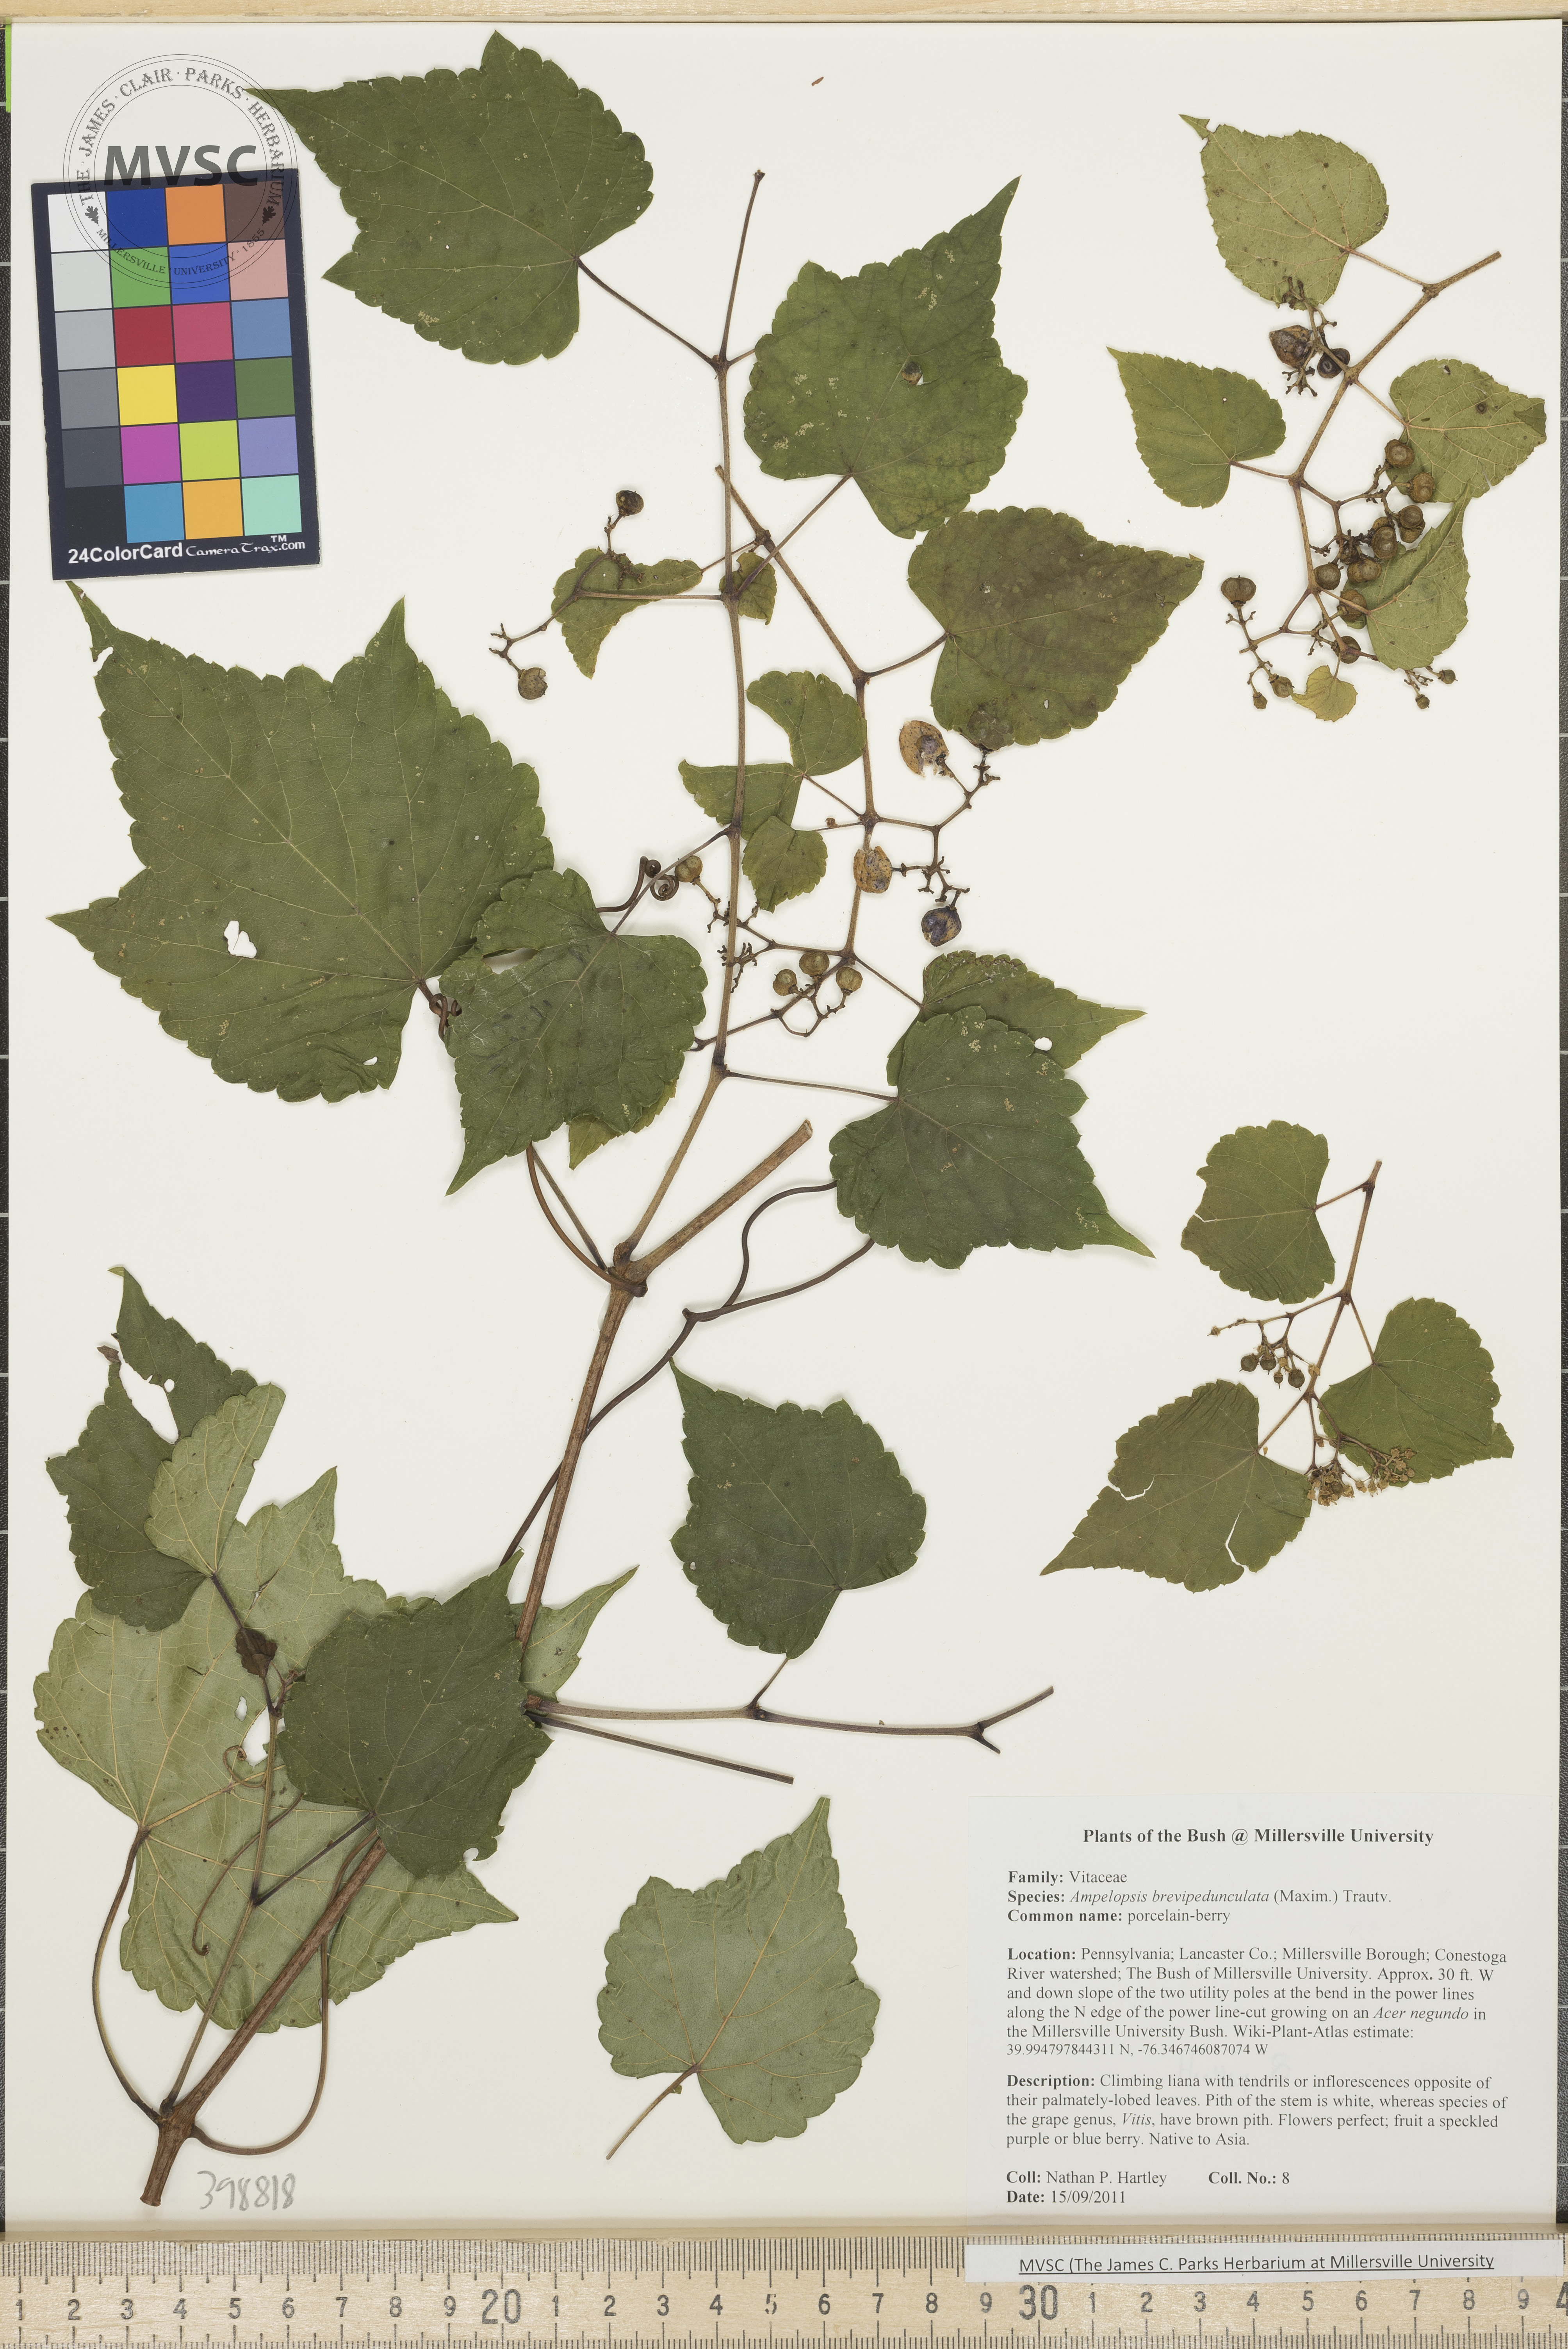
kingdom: Plantae
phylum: Tracheophyta
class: Magnoliopsida
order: Vitales
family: Vitaceae
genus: Ampelopsis
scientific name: Ampelopsis brevipedunculata
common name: Porcelain-berry
